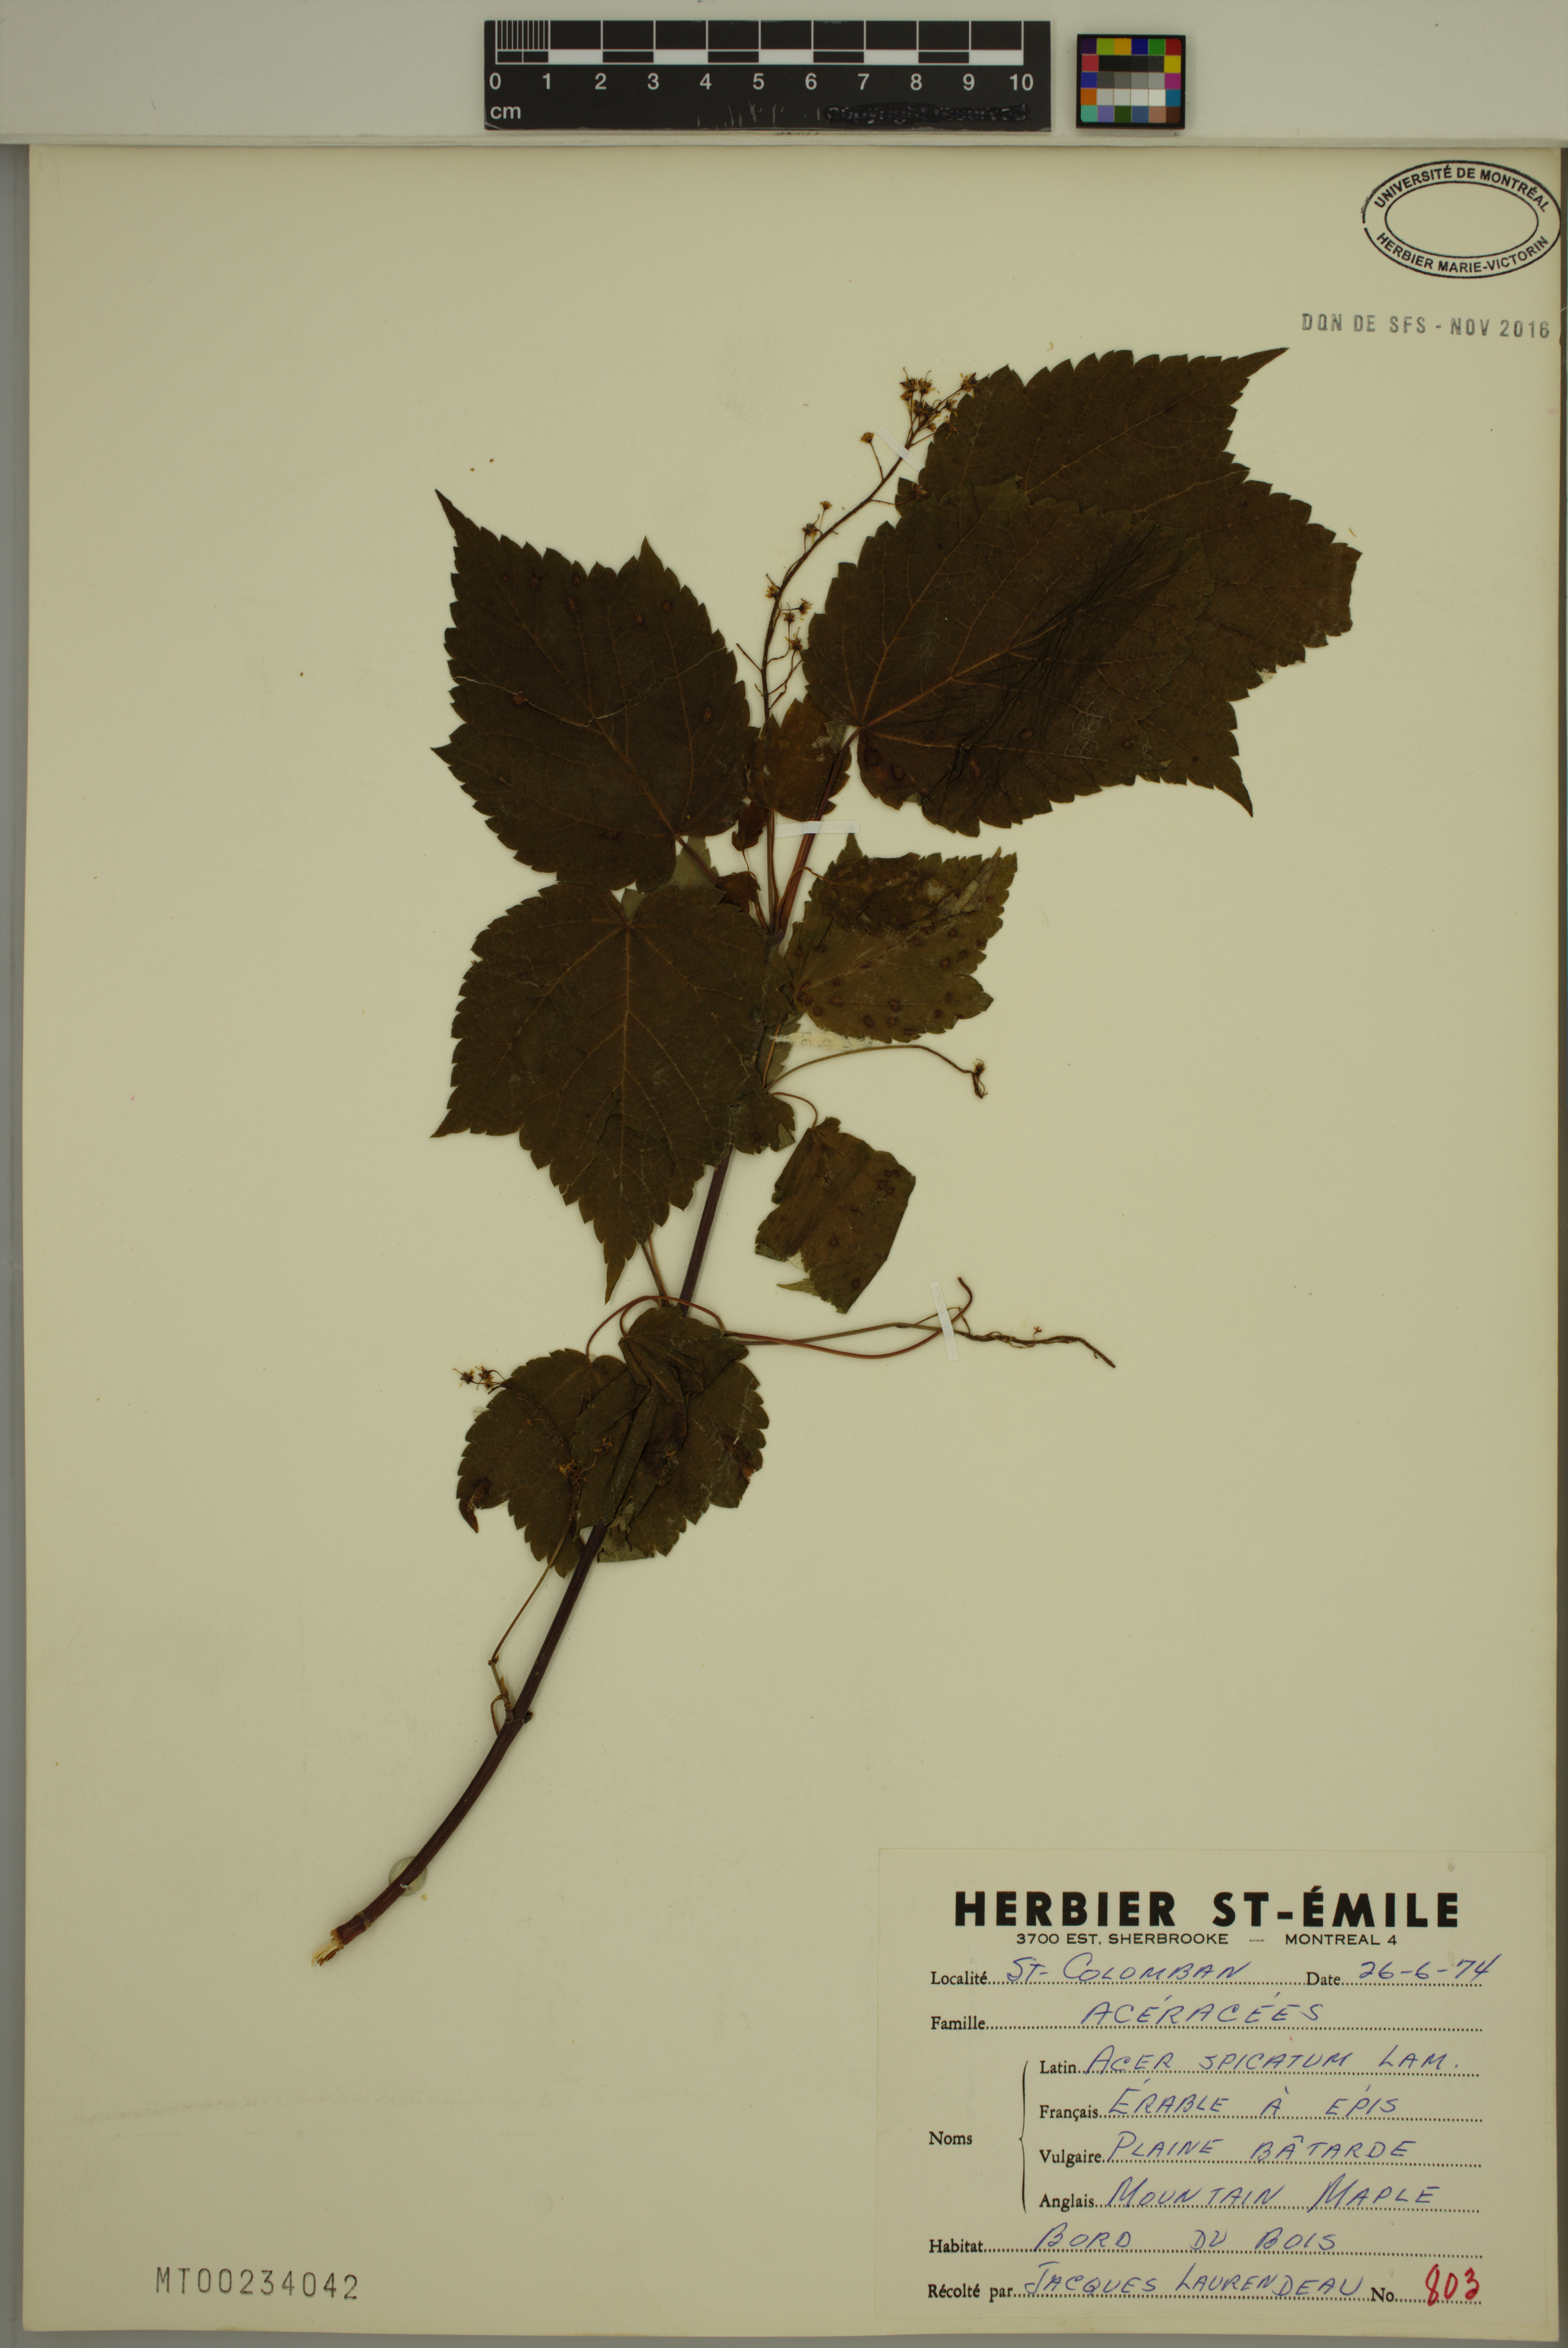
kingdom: Plantae
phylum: Tracheophyta
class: Magnoliopsida
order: Sapindales
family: Sapindaceae
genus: Acer
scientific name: Acer spicatum
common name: Mountain maple
